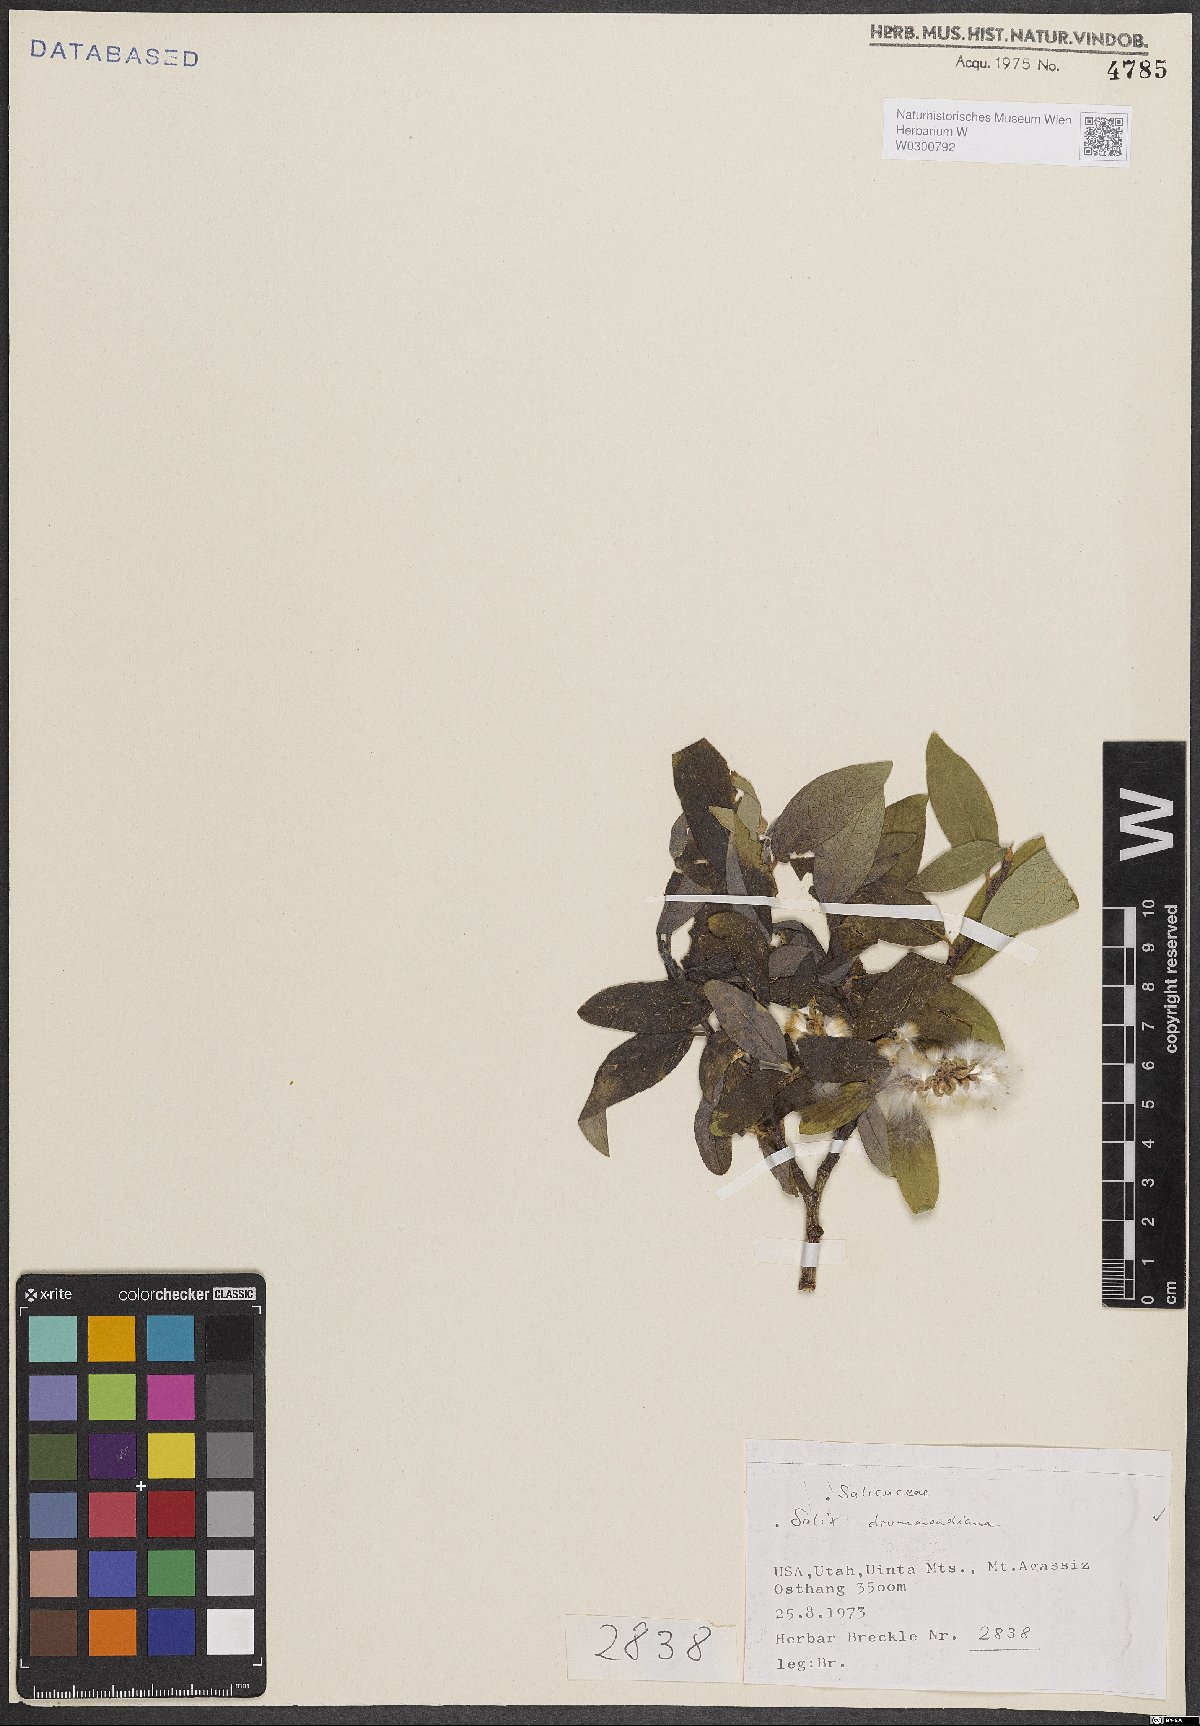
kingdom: Plantae
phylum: Tracheophyta
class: Magnoliopsida
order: Malpighiales
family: Salicaceae
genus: Salix
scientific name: Salix drummondiana
